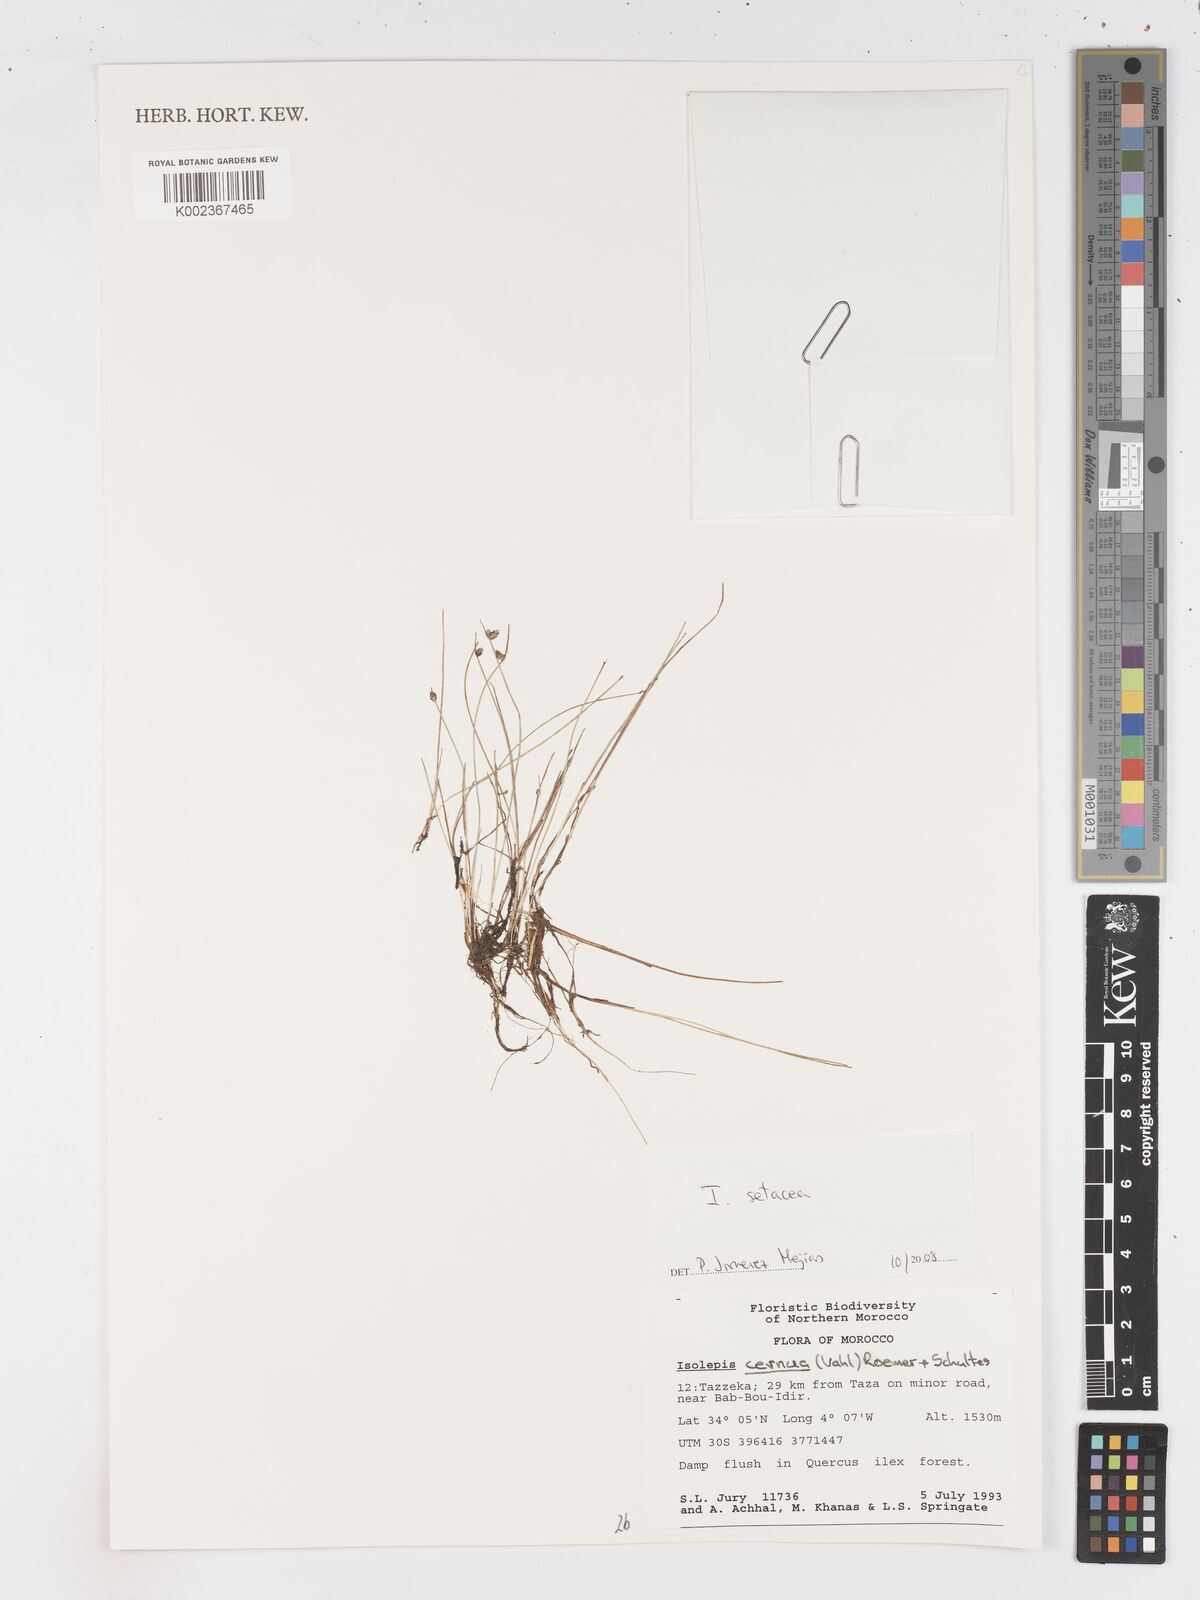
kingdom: Plantae
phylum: Tracheophyta
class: Liliopsida
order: Poales
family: Cyperaceae
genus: Isolepis
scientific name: Isolepis cernua
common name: Slender club-rush
